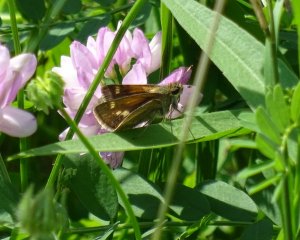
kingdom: Animalia
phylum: Arthropoda
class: Insecta
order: Lepidoptera
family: Hesperiidae
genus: Polites
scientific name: Polites themistocles
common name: Tawny-edged Skipper
